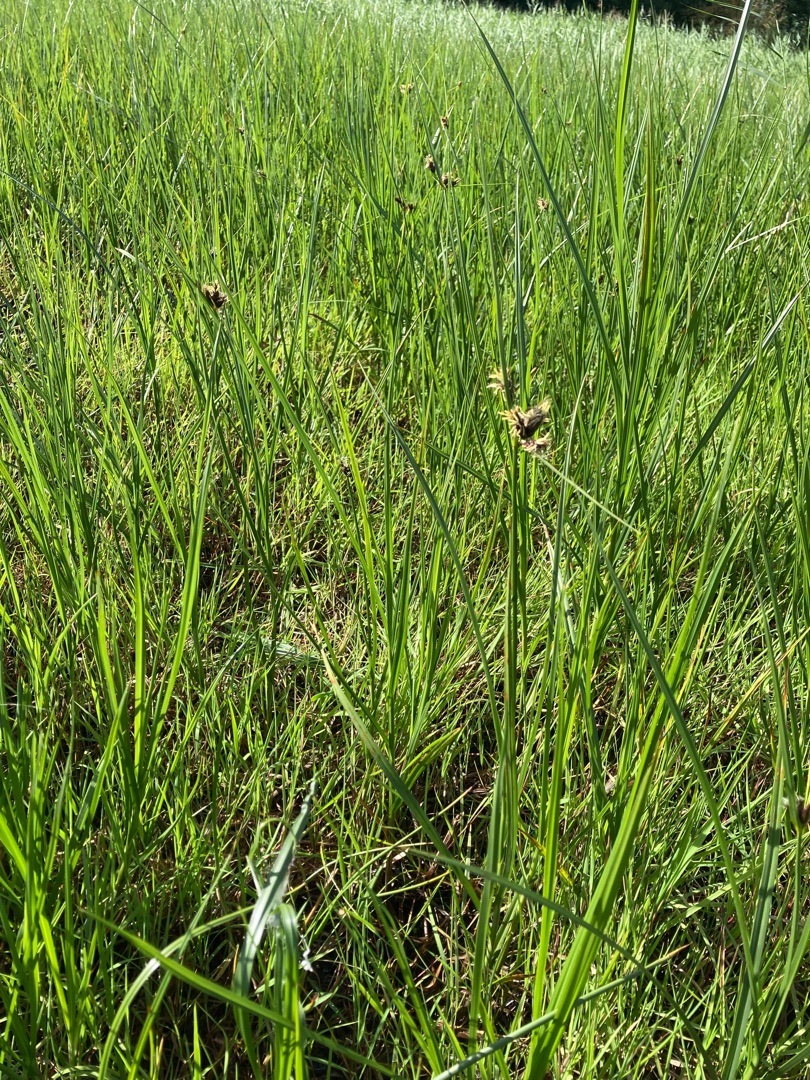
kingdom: Plantae
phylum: Tracheophyta
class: Liliopsida
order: Poales
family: Cyperaceae
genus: Bolboschoenus
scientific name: Bolboschoenus maritimus
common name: Strand-kogleaks
